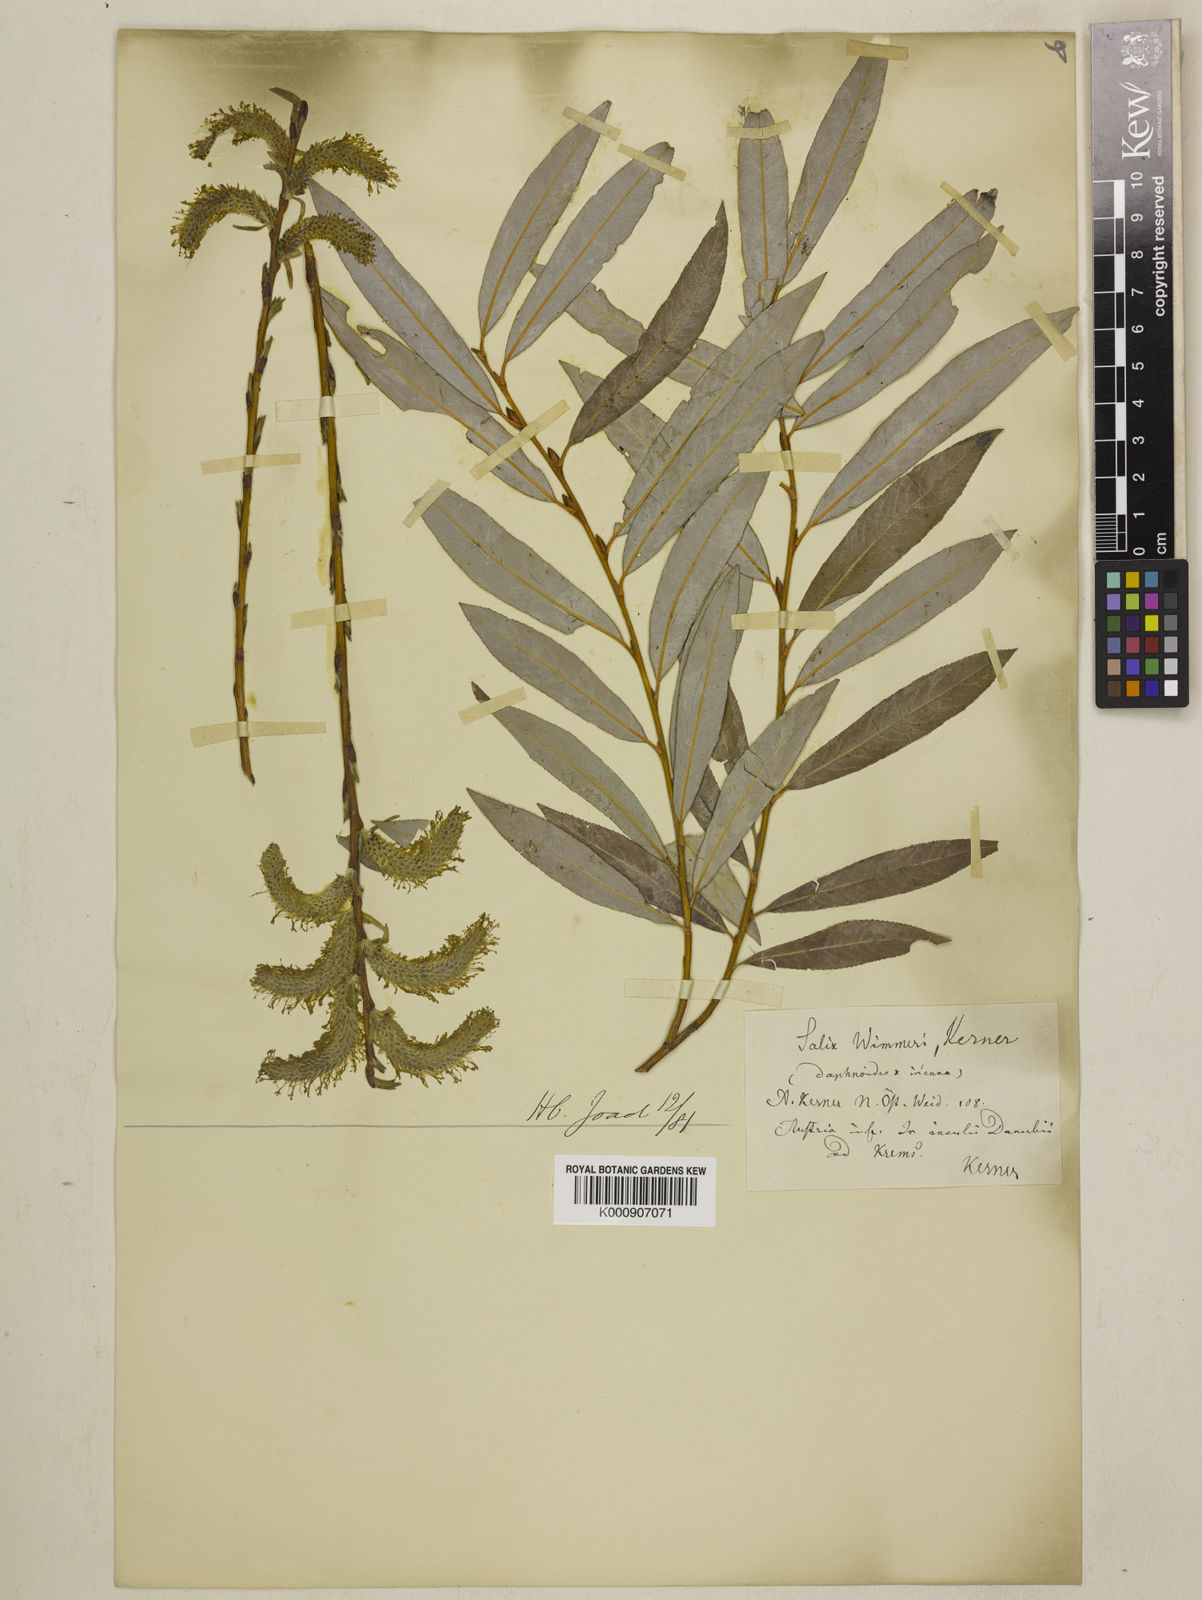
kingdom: Plantae
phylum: Tracheophyta
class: Magnoliopsida
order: Malpighiales
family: Salicaceae
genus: Salix
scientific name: Salix daphnoides
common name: European violet-willow
